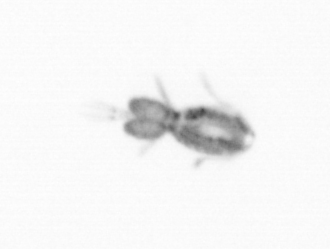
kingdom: Animalia
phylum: Arthropoda
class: Copepoda
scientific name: Copepoda
